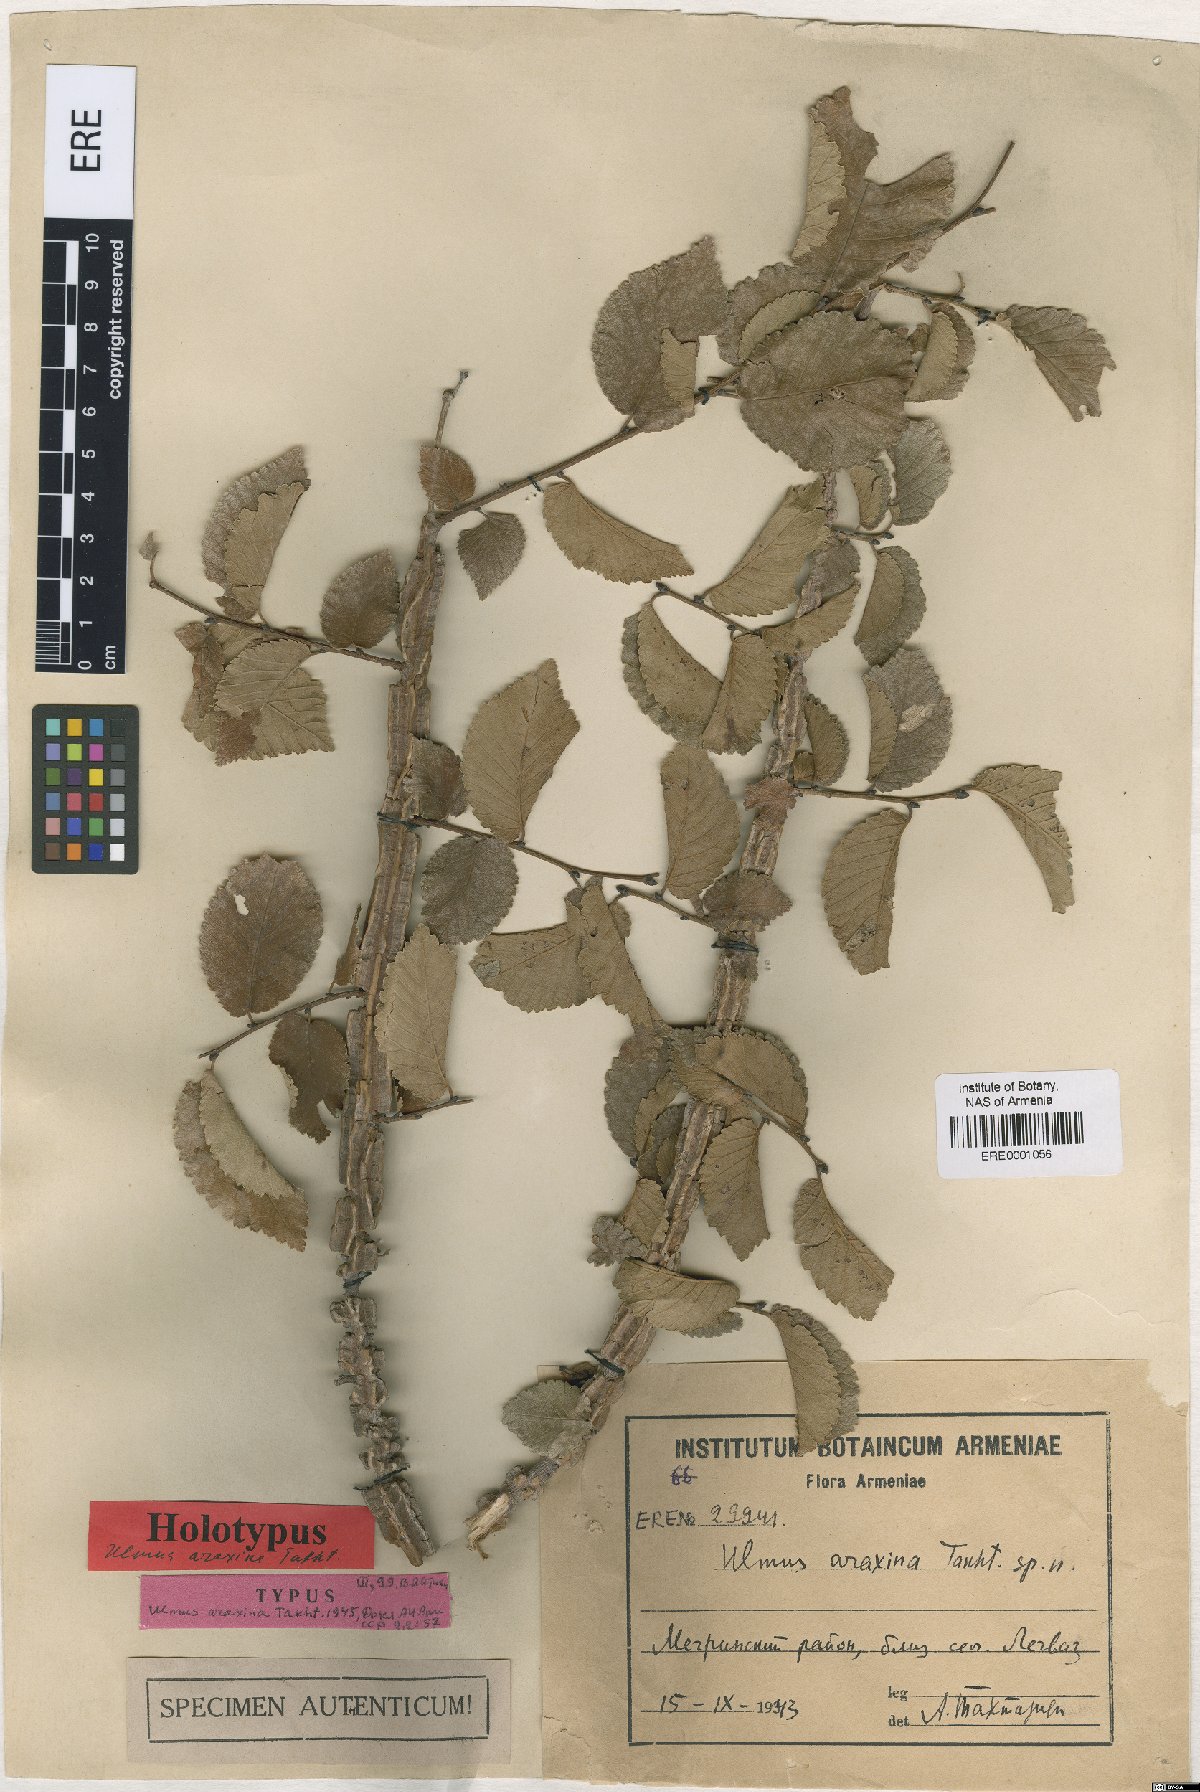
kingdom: Plantae
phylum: Tracheophyta
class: Magnoliopsida
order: Rosales
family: Ulmaceae
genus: Ulmus
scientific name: Ulmus minor
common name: Small-leaved elm
